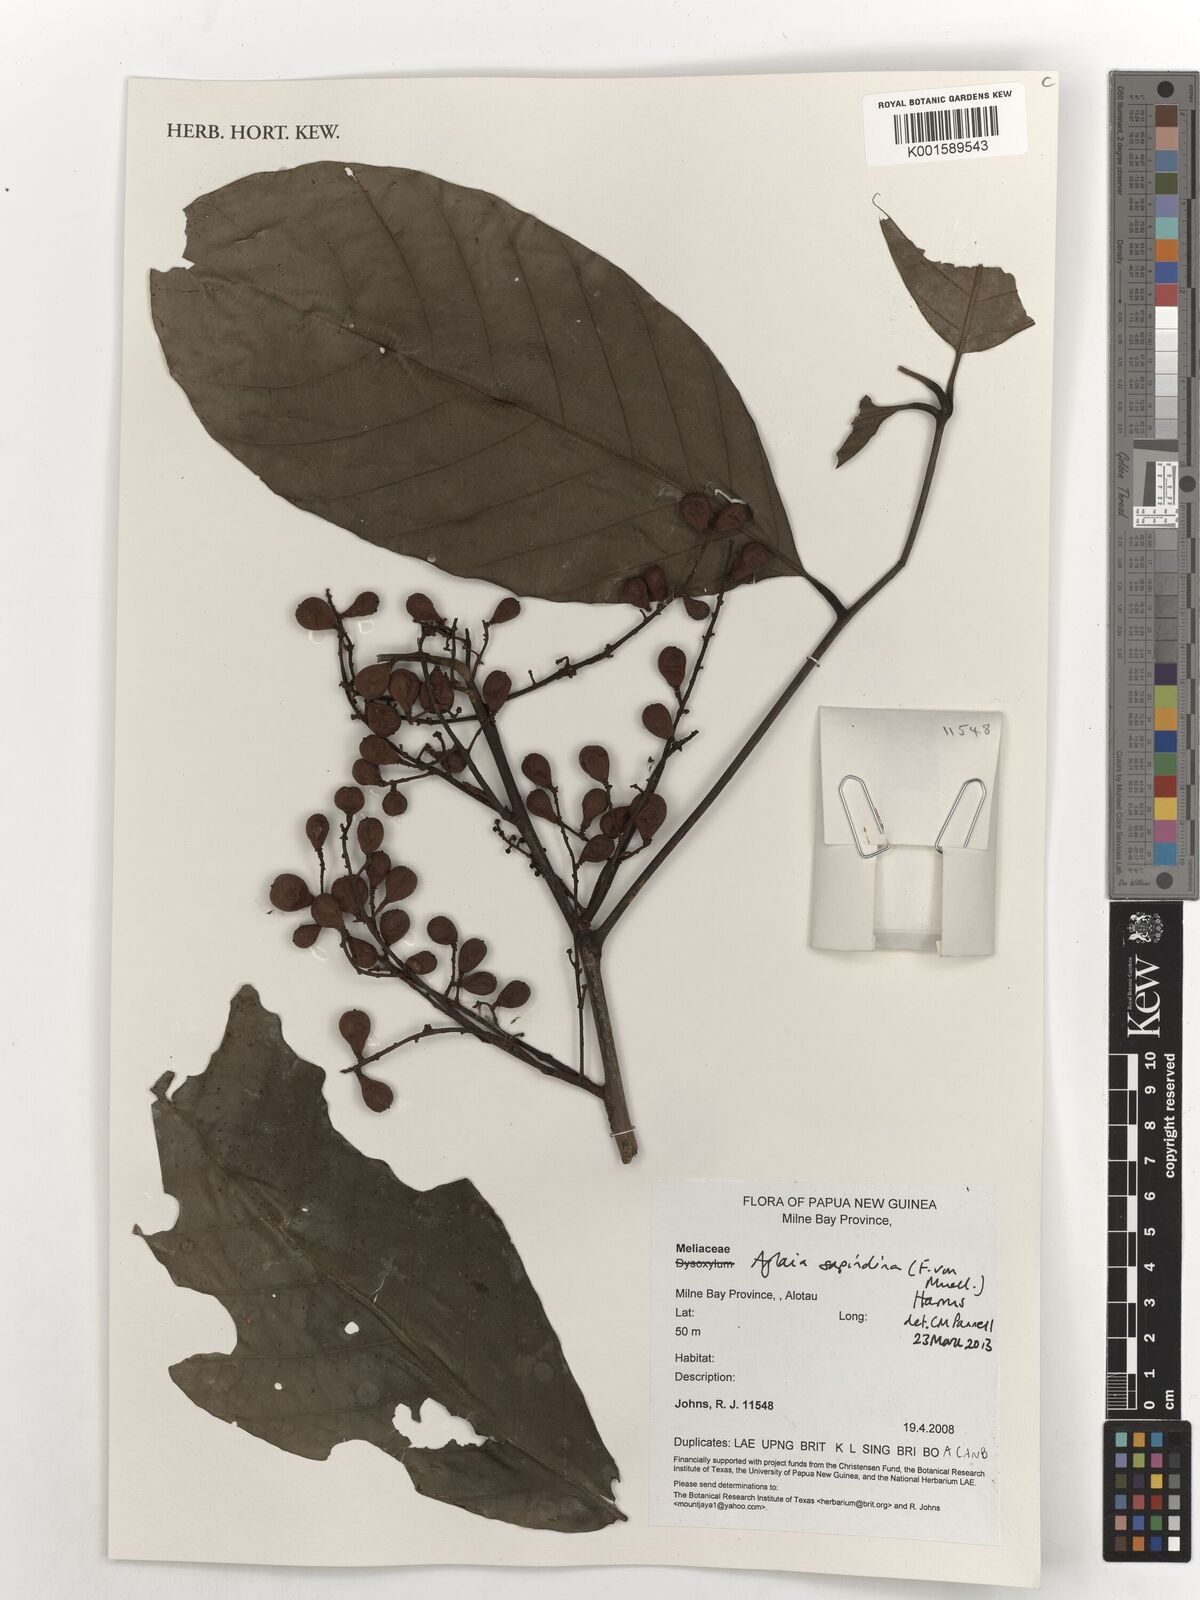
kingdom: Plantae
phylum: Tracheophyta
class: Magnoliopsida
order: Sapindales
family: Meliaceae
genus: Aglaia
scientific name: Aglaia sapindina
